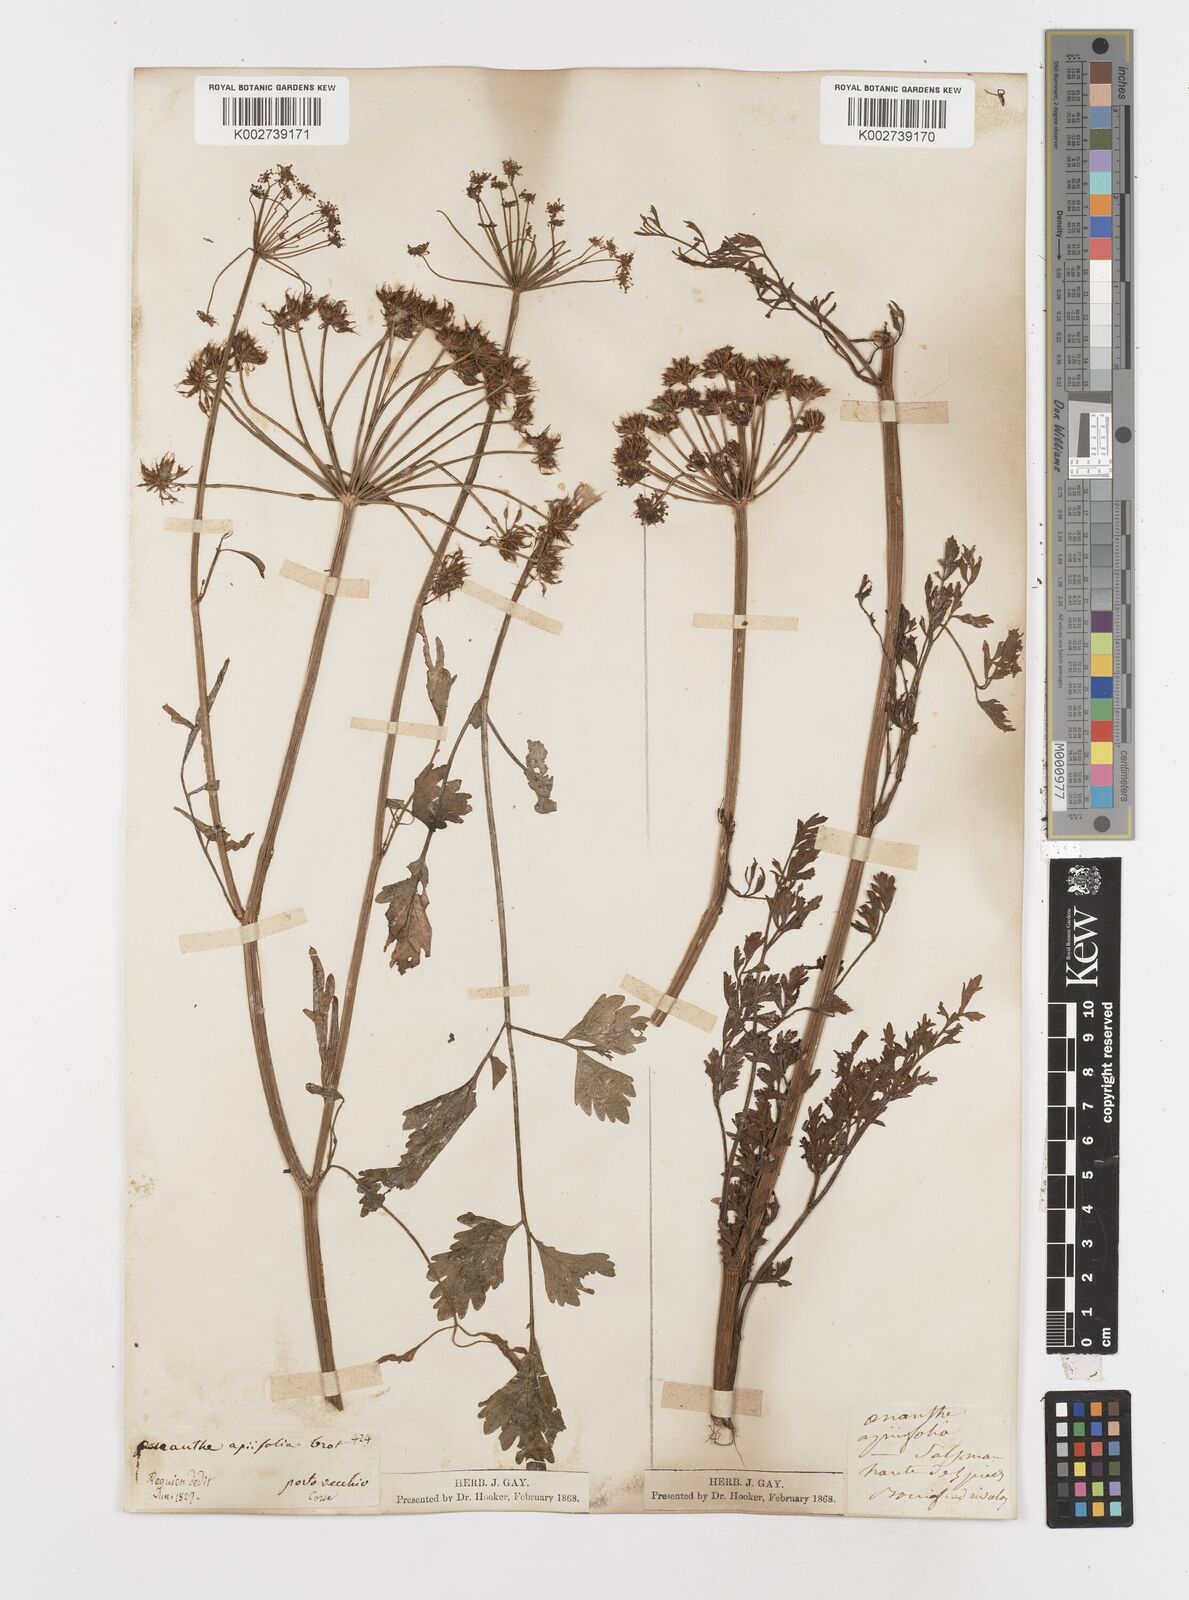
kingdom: Plantae
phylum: Tracheophyta
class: Magnoliopsida
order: Apiales
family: Apiaceae
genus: Oenanthe
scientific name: Oenanthe crocata
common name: Hemlock water-dropwort
